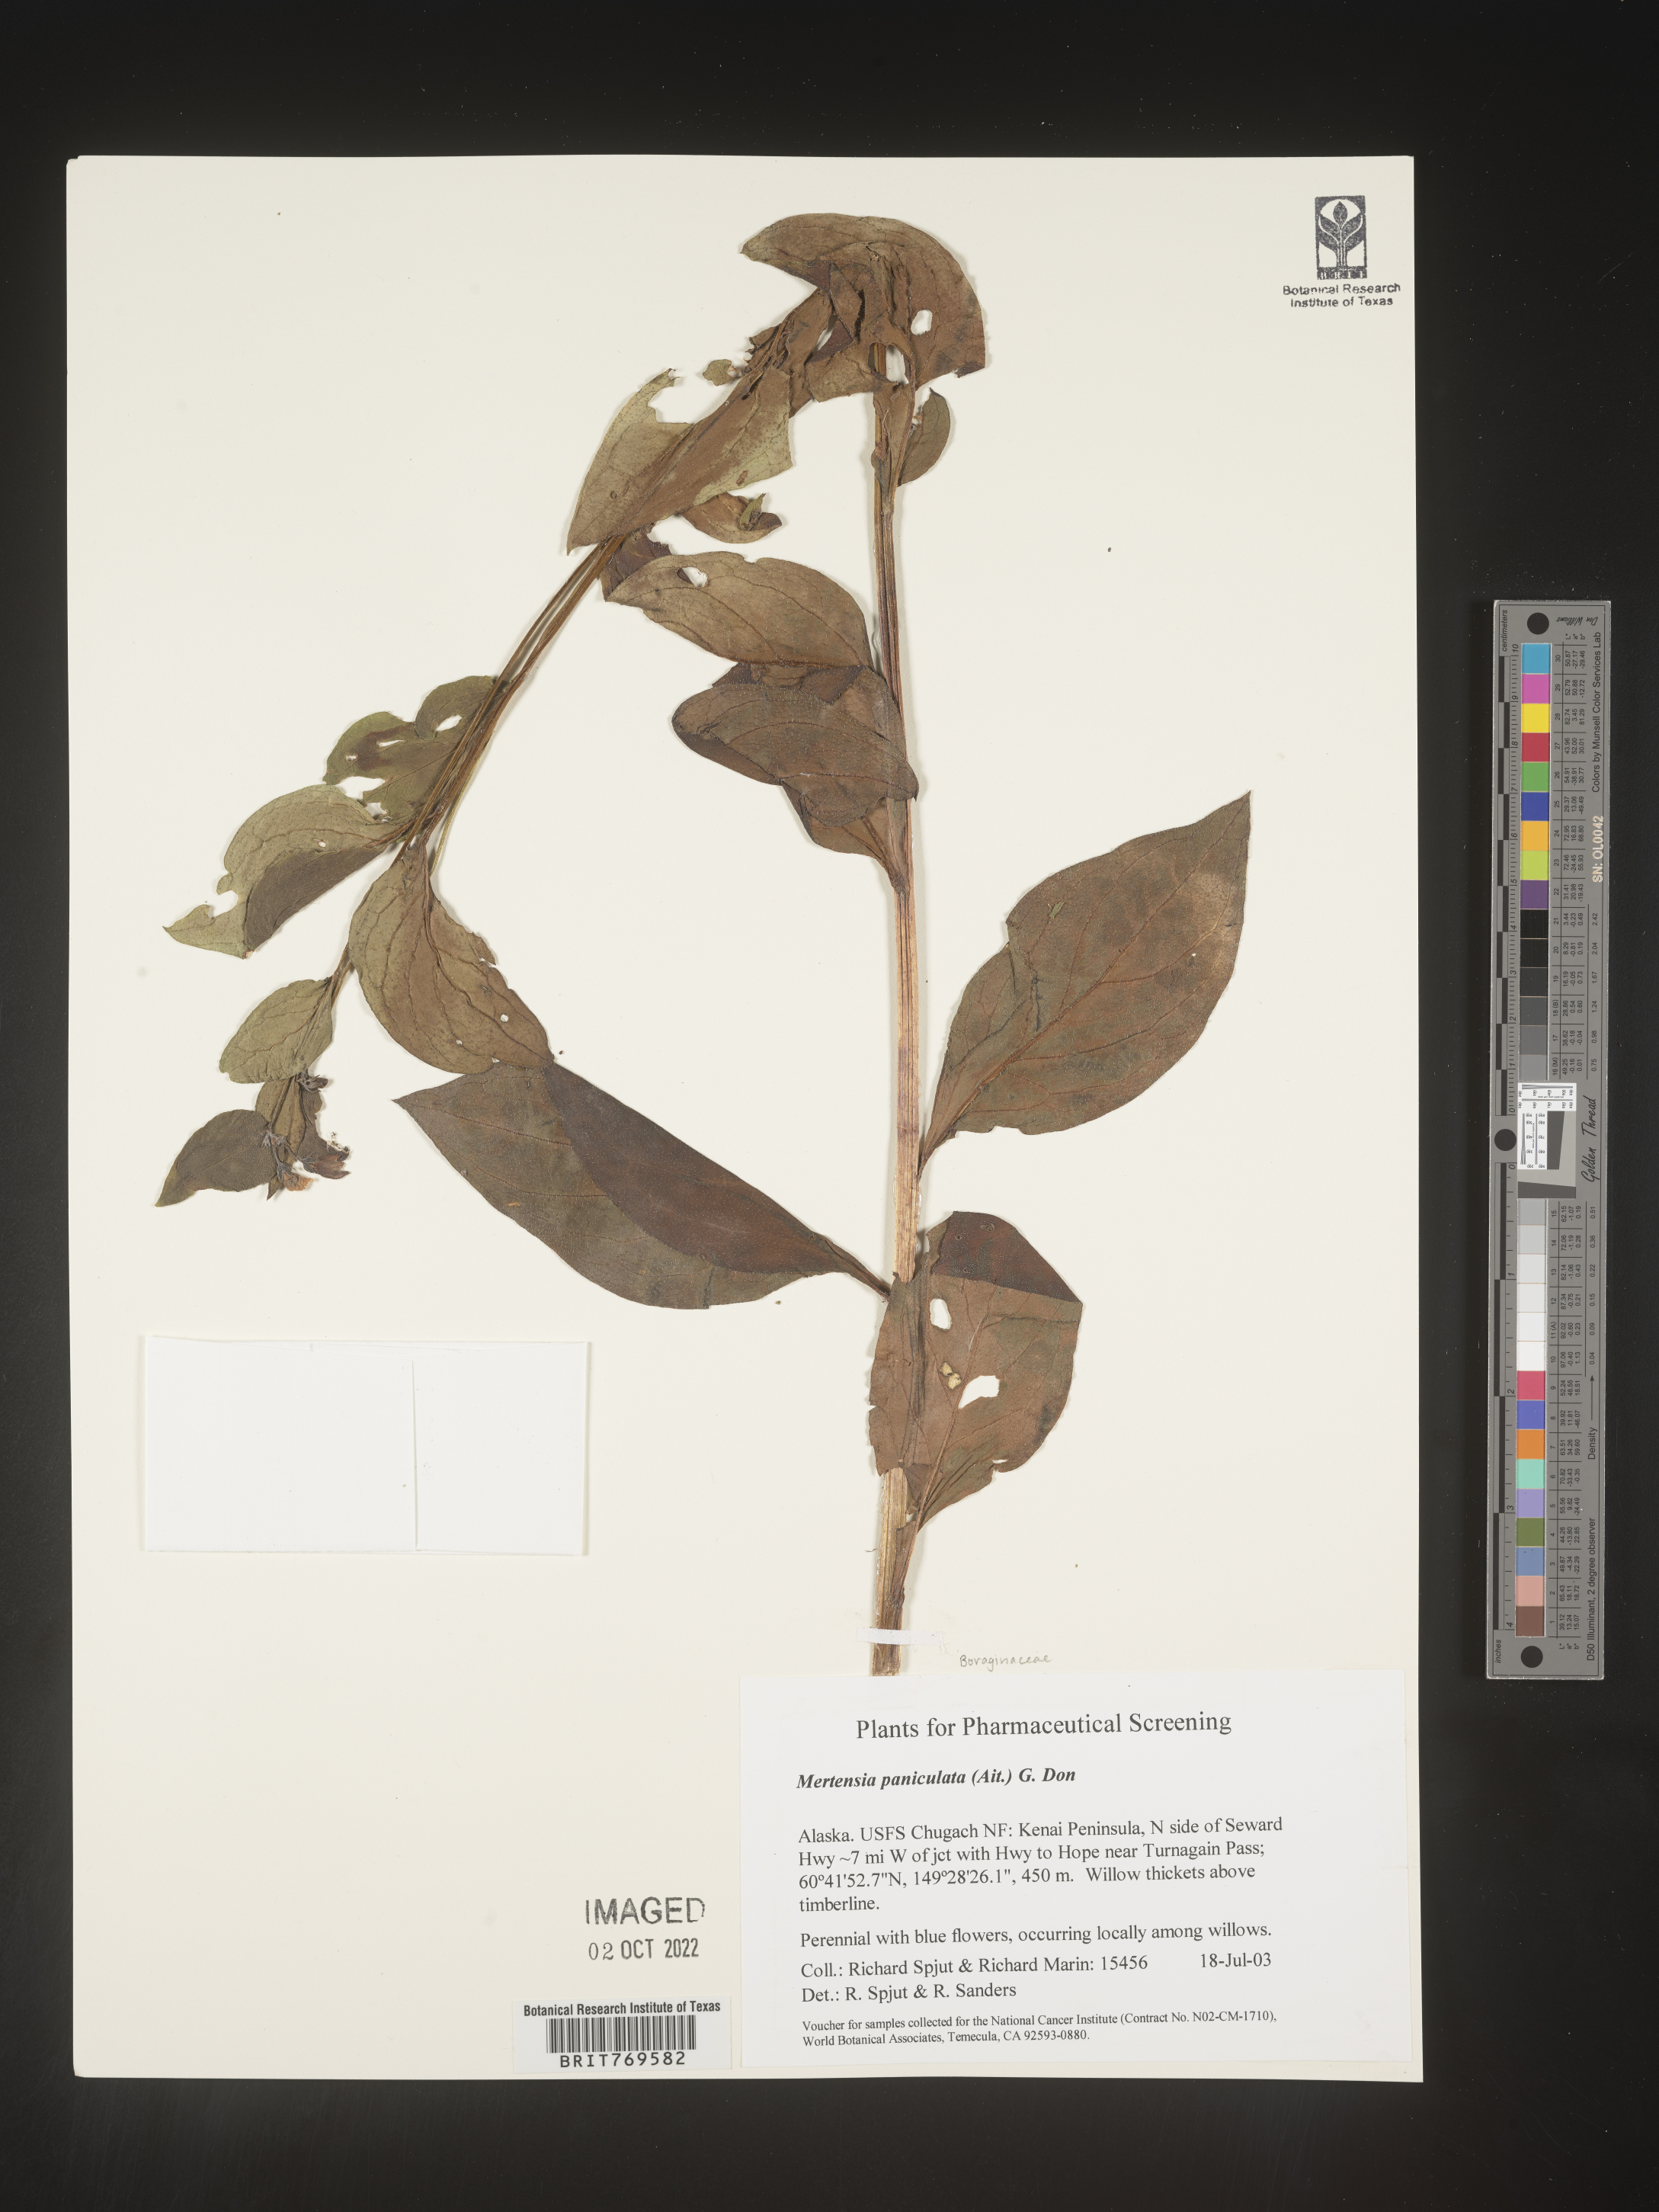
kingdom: Plantae
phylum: Tracheophyta
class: Magnoliopsida
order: Boraginales
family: Boraginaceae
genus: Mertensia
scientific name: Mertensia
